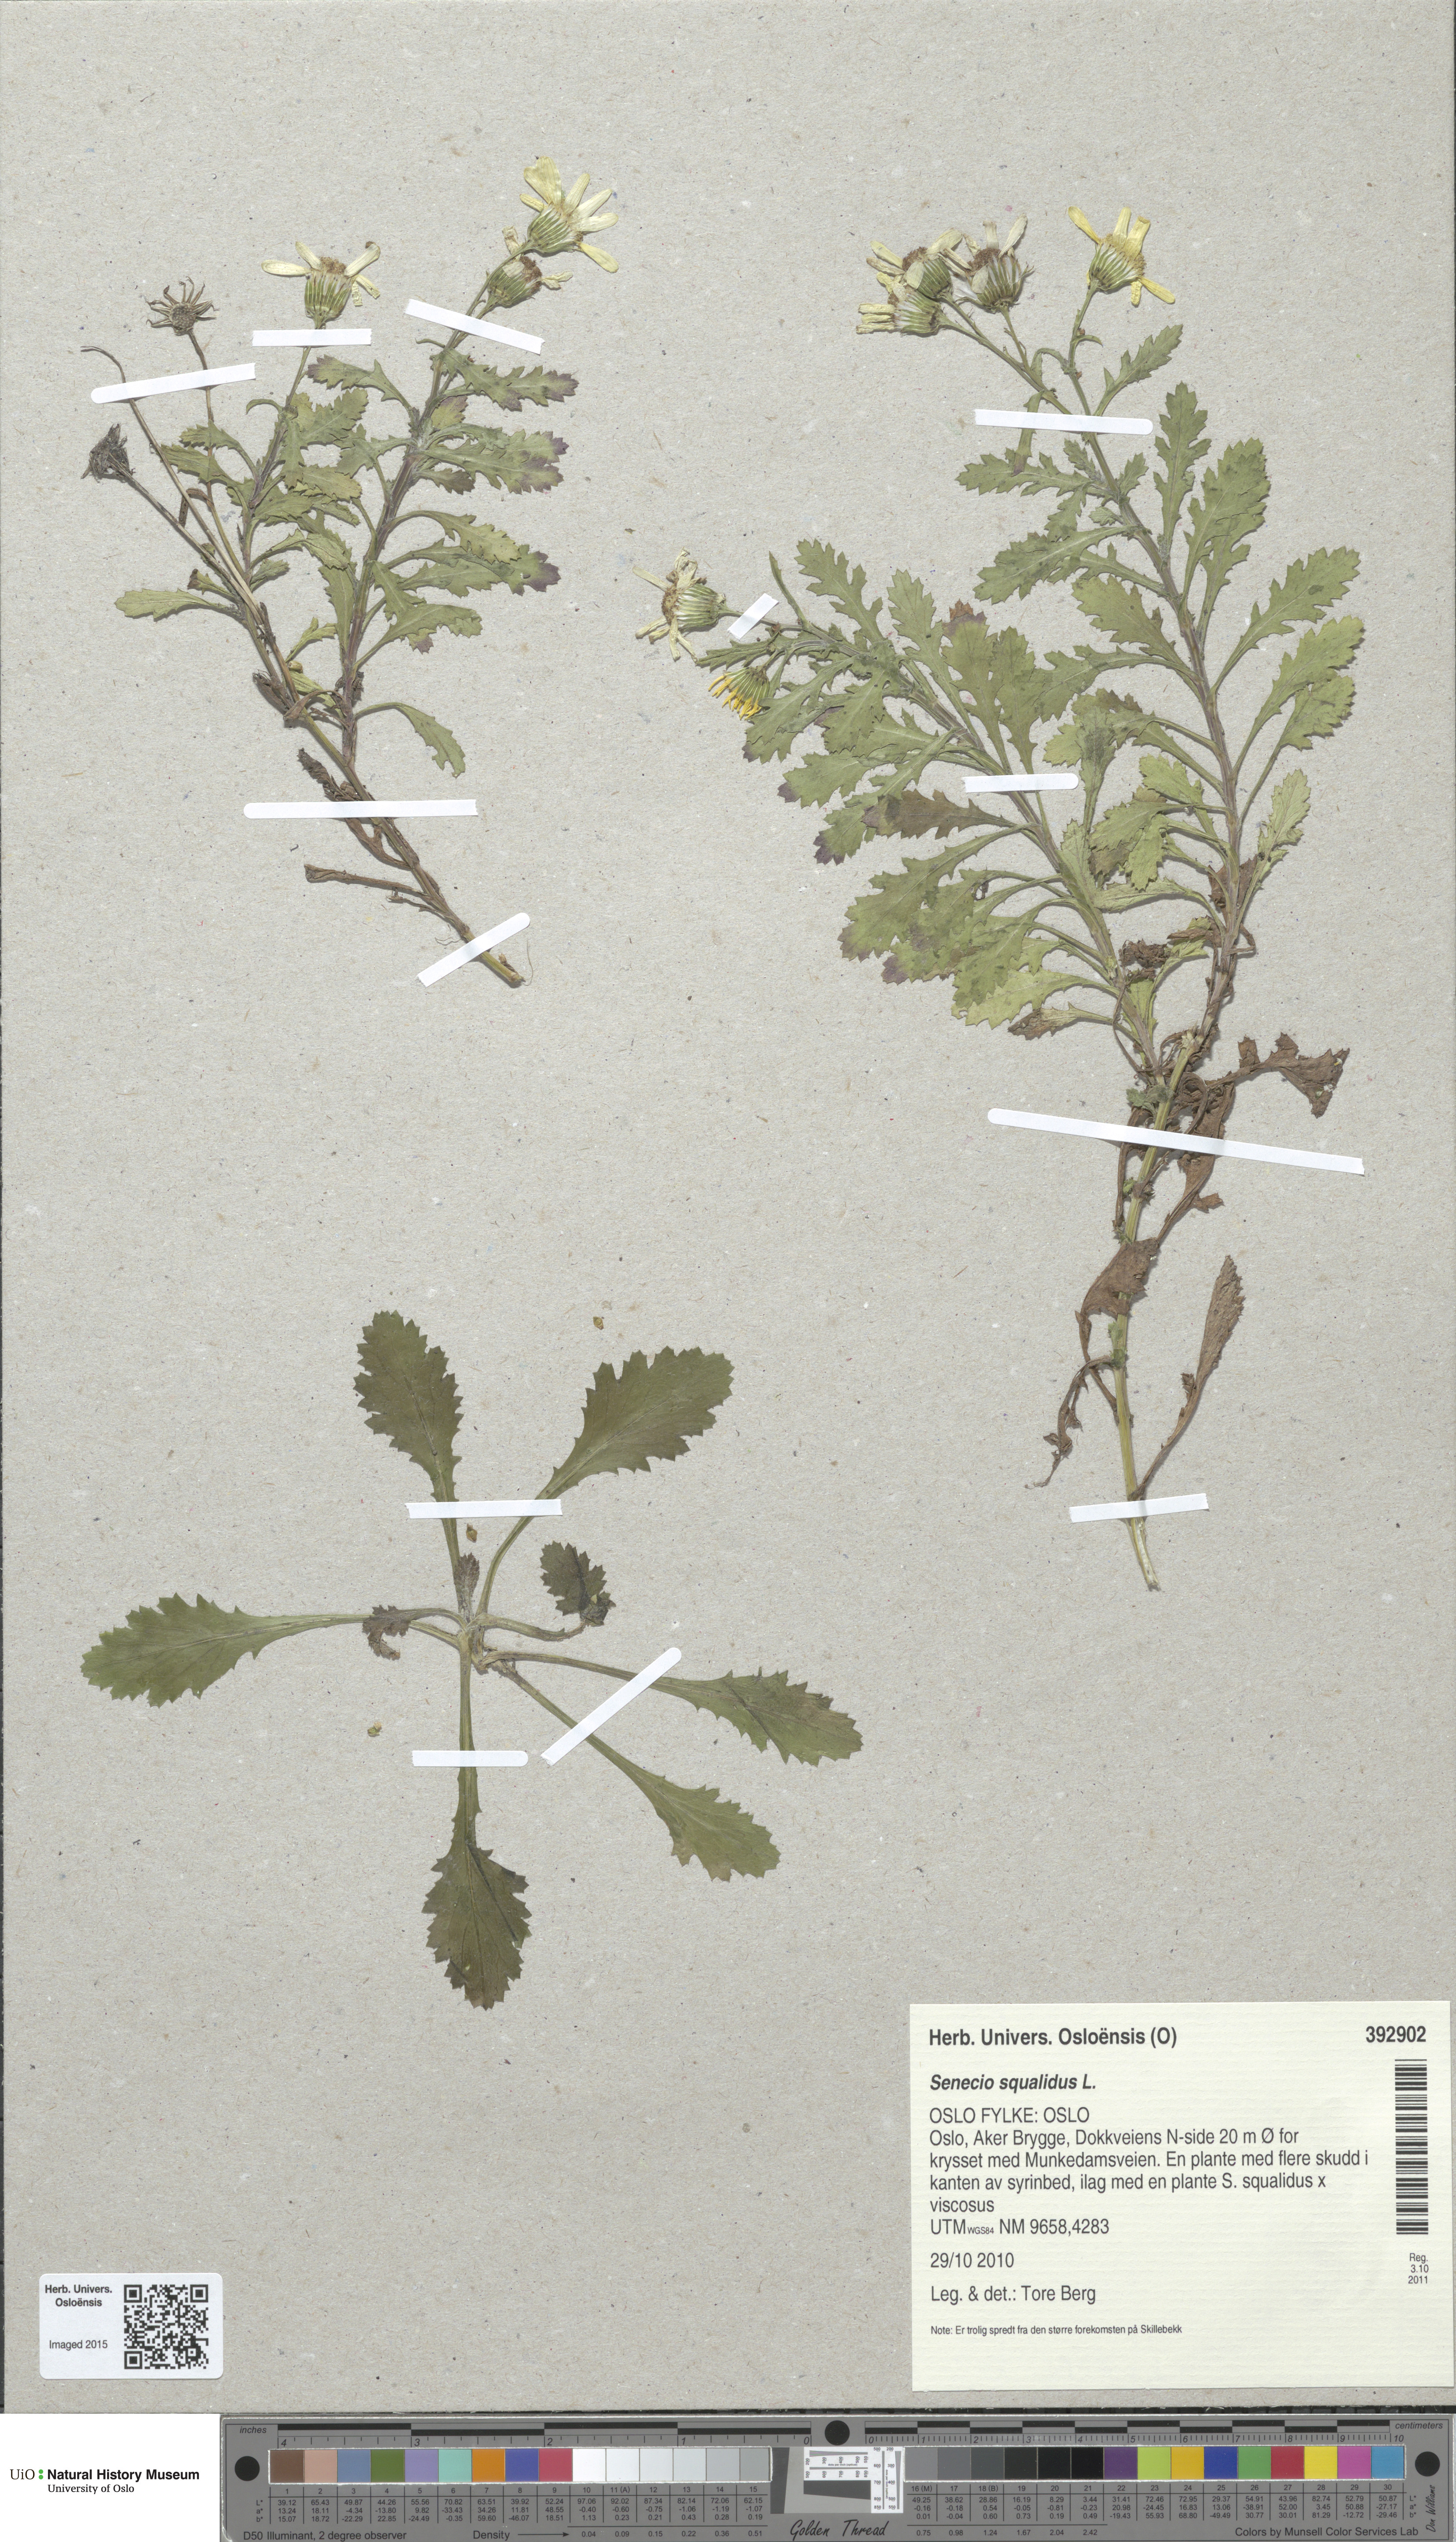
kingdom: Plantae
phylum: Tracheophyta
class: Magnoliopsida
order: Asterales
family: Asteraceae
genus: Senecio
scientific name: Senecio squalidus
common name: Oxford ragwort
